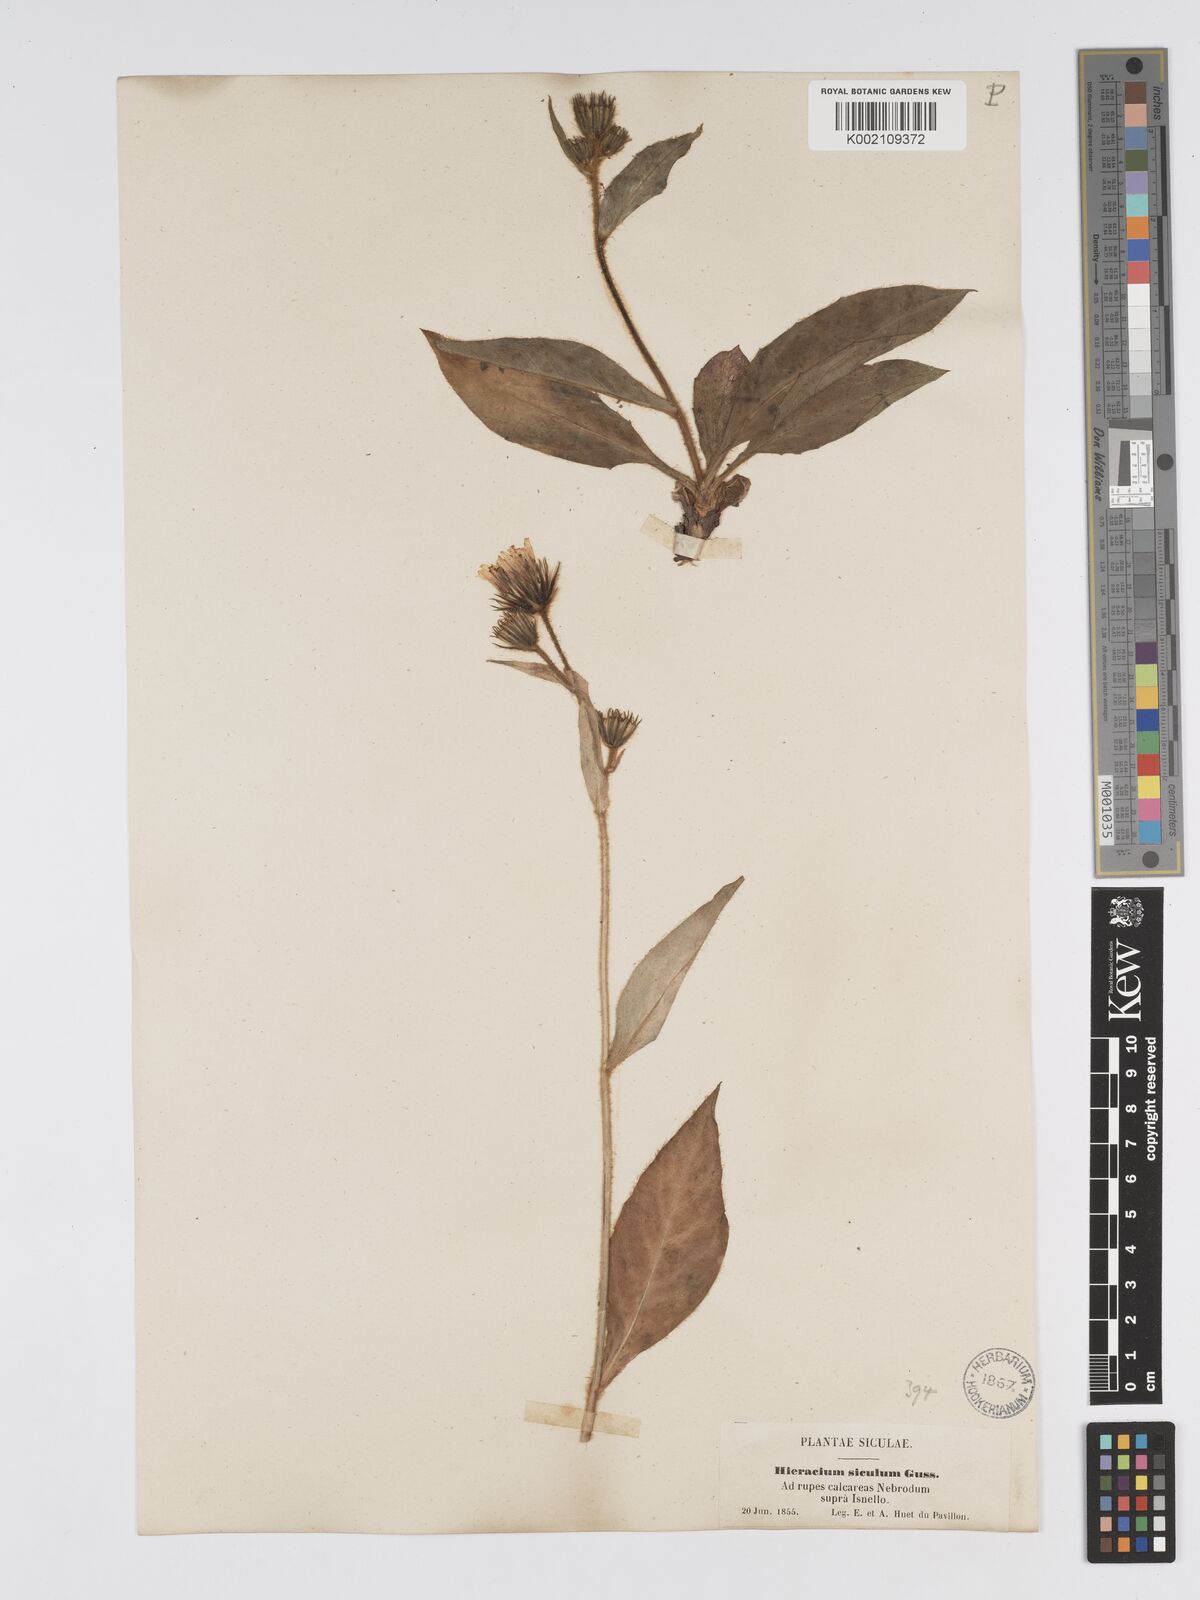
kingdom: Plantae
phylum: Tracheophyta
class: Magnoliopsida
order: Asterales
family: Asteraceae
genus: Hieracium
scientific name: Hieracium symphytifolium
